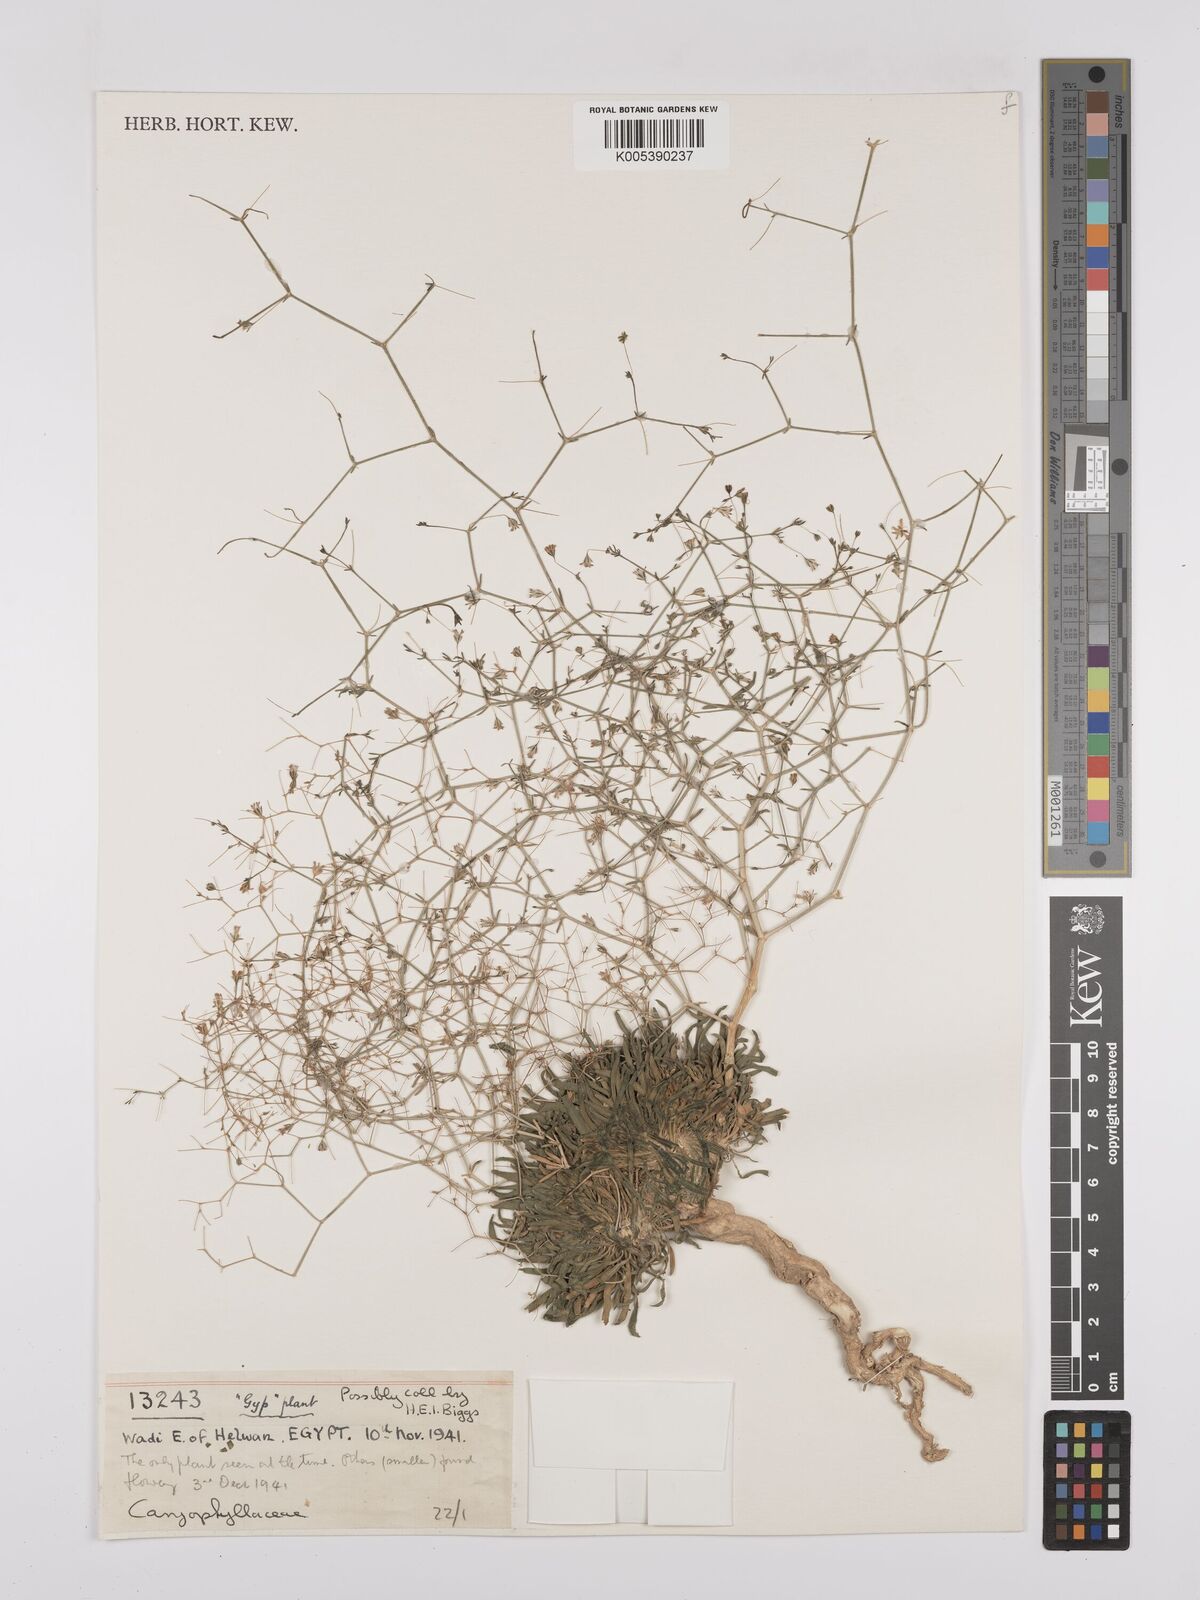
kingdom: Plantae
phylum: Tracheophyta
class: Magnoliopsida
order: Caryophyllales
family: Caryophyllaceae
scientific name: Caryophyllaceae
